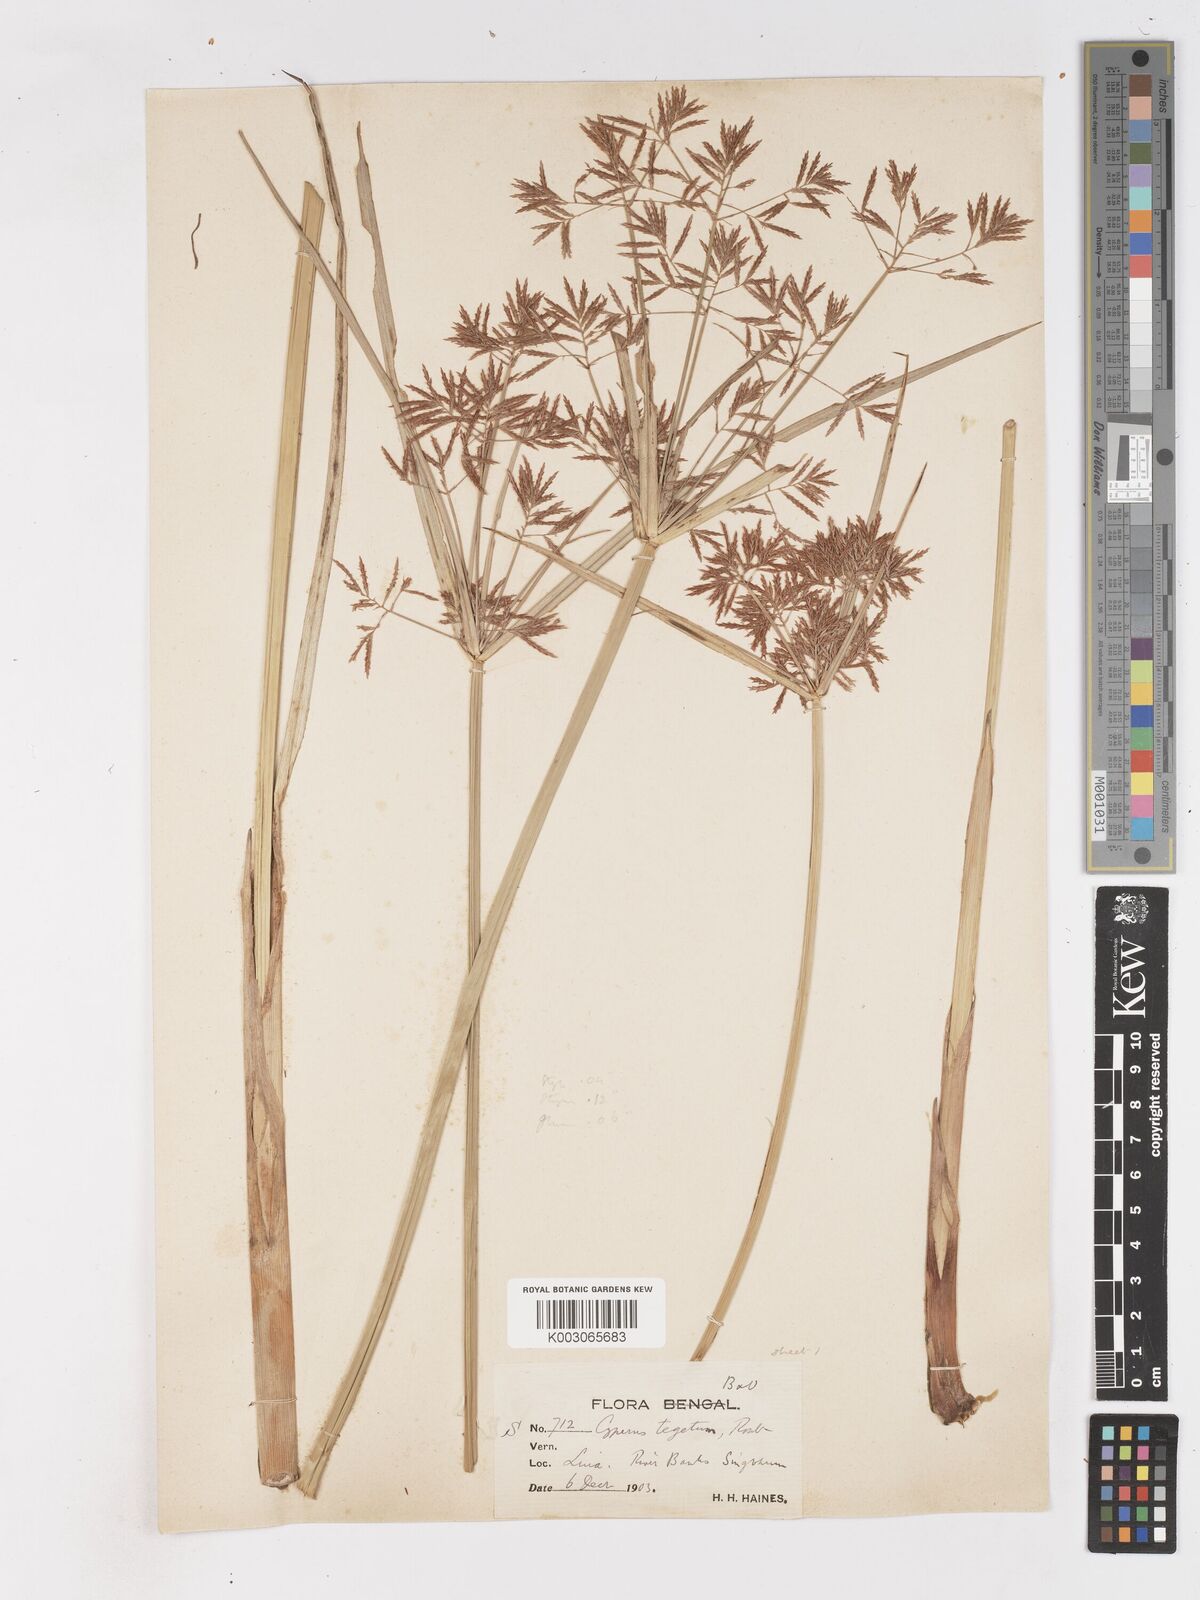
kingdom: Plantae
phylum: Tracheophyta
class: Liliopsida
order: Poales
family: Cyperaceae
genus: Cyperus
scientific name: Cyperus pangorei
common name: Mat sedge
